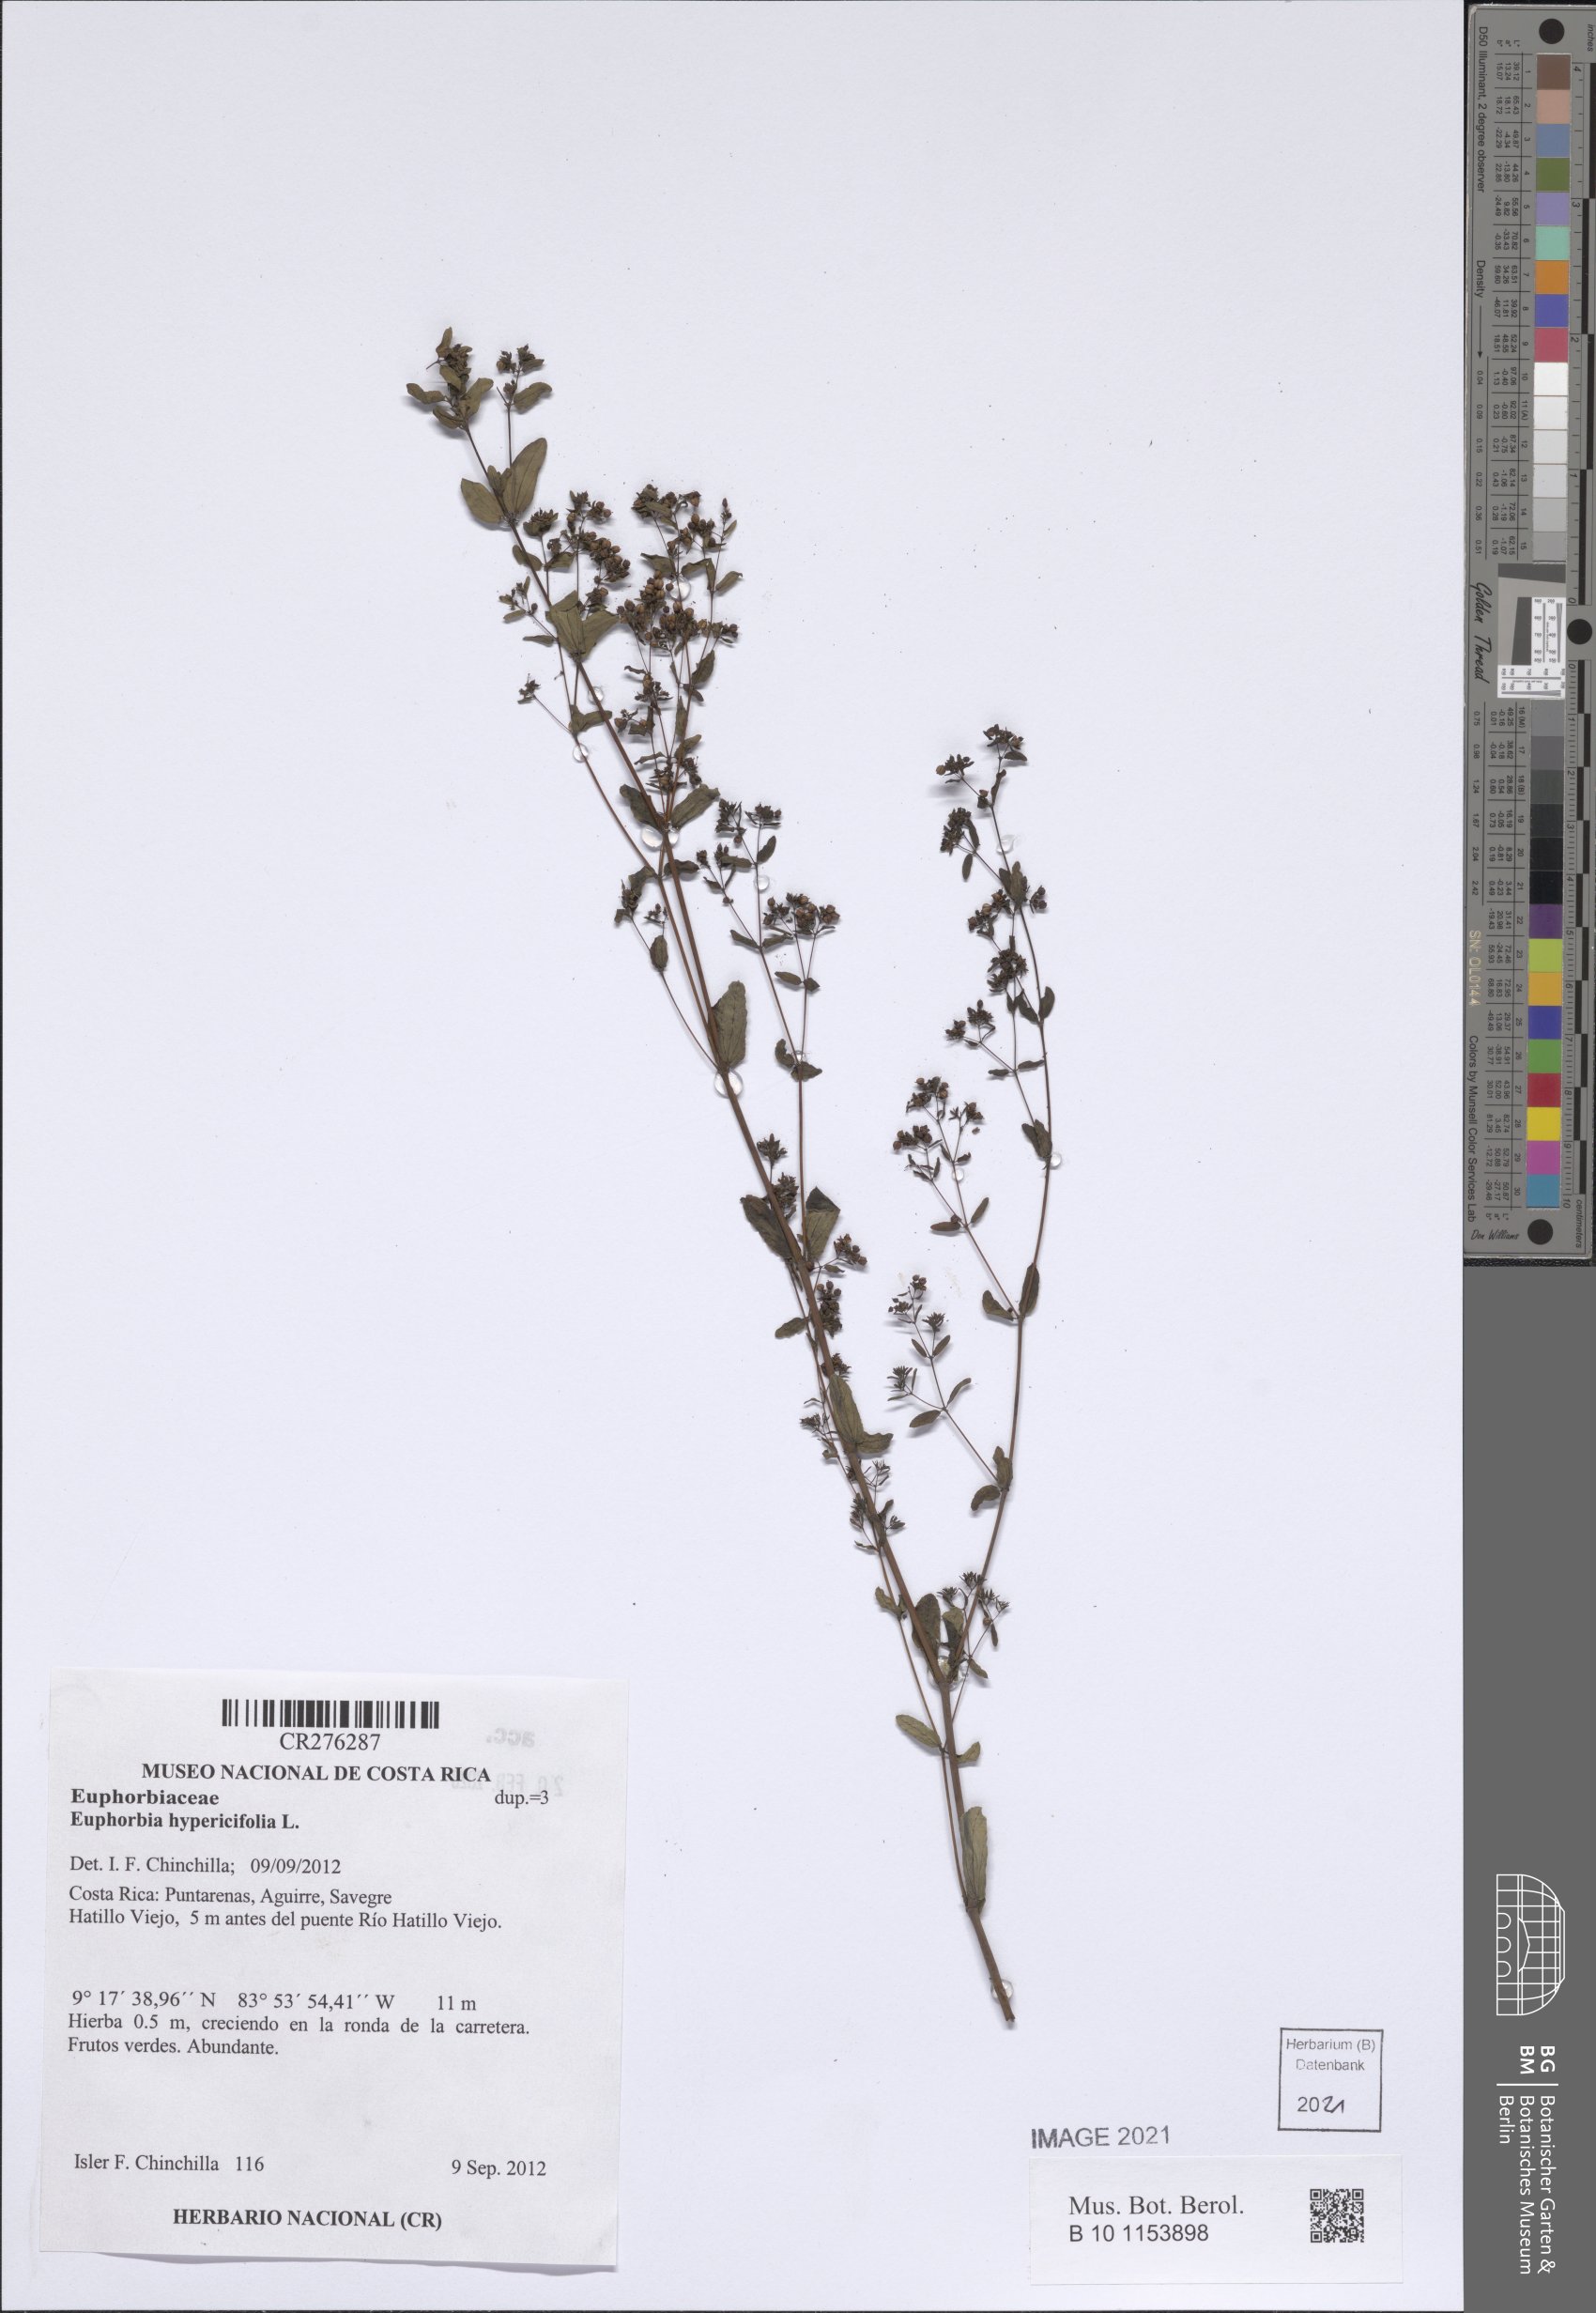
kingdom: Plantae
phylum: Tracheophyta
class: Magnoliopsida
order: Malpighiales
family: Euphorbiaceae
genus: Euphorbia
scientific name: Euphorbia hypericifolia
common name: Graceful sandmat
